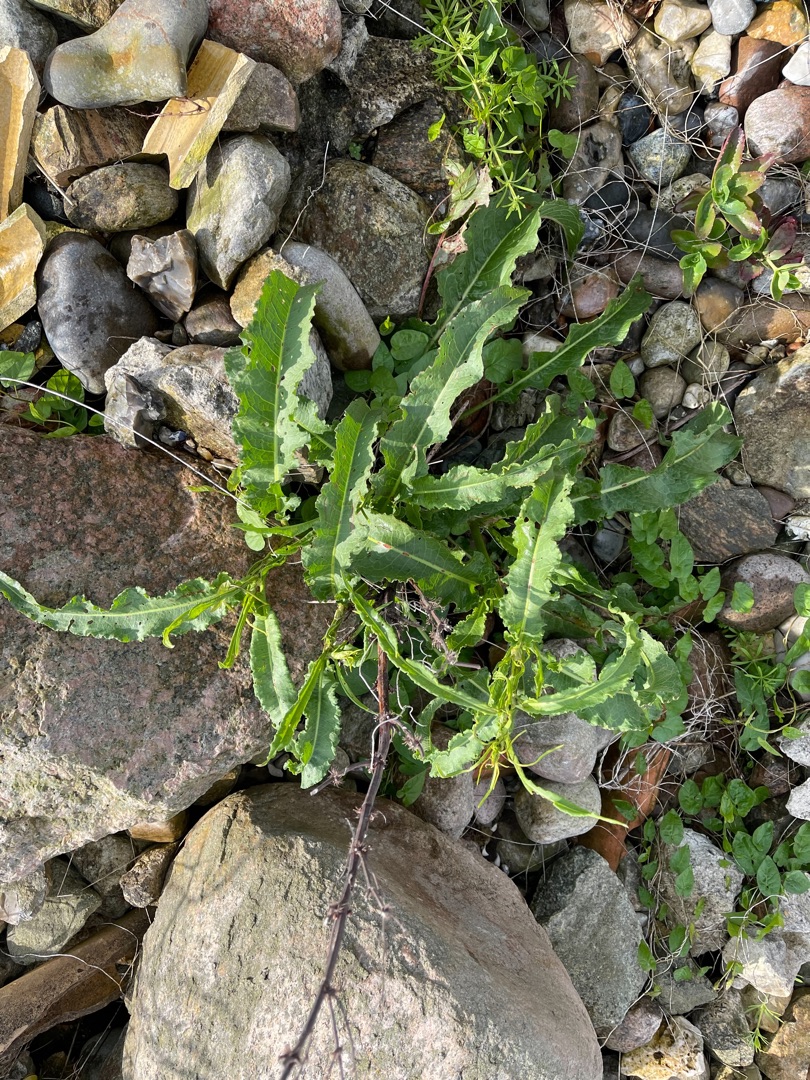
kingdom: Plantae
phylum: Tracheophyta
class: Magnoliopsida
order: Caryophyllales
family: Polygonaceae
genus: Rumex
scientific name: Rumex crispus
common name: Kruset skræppe
